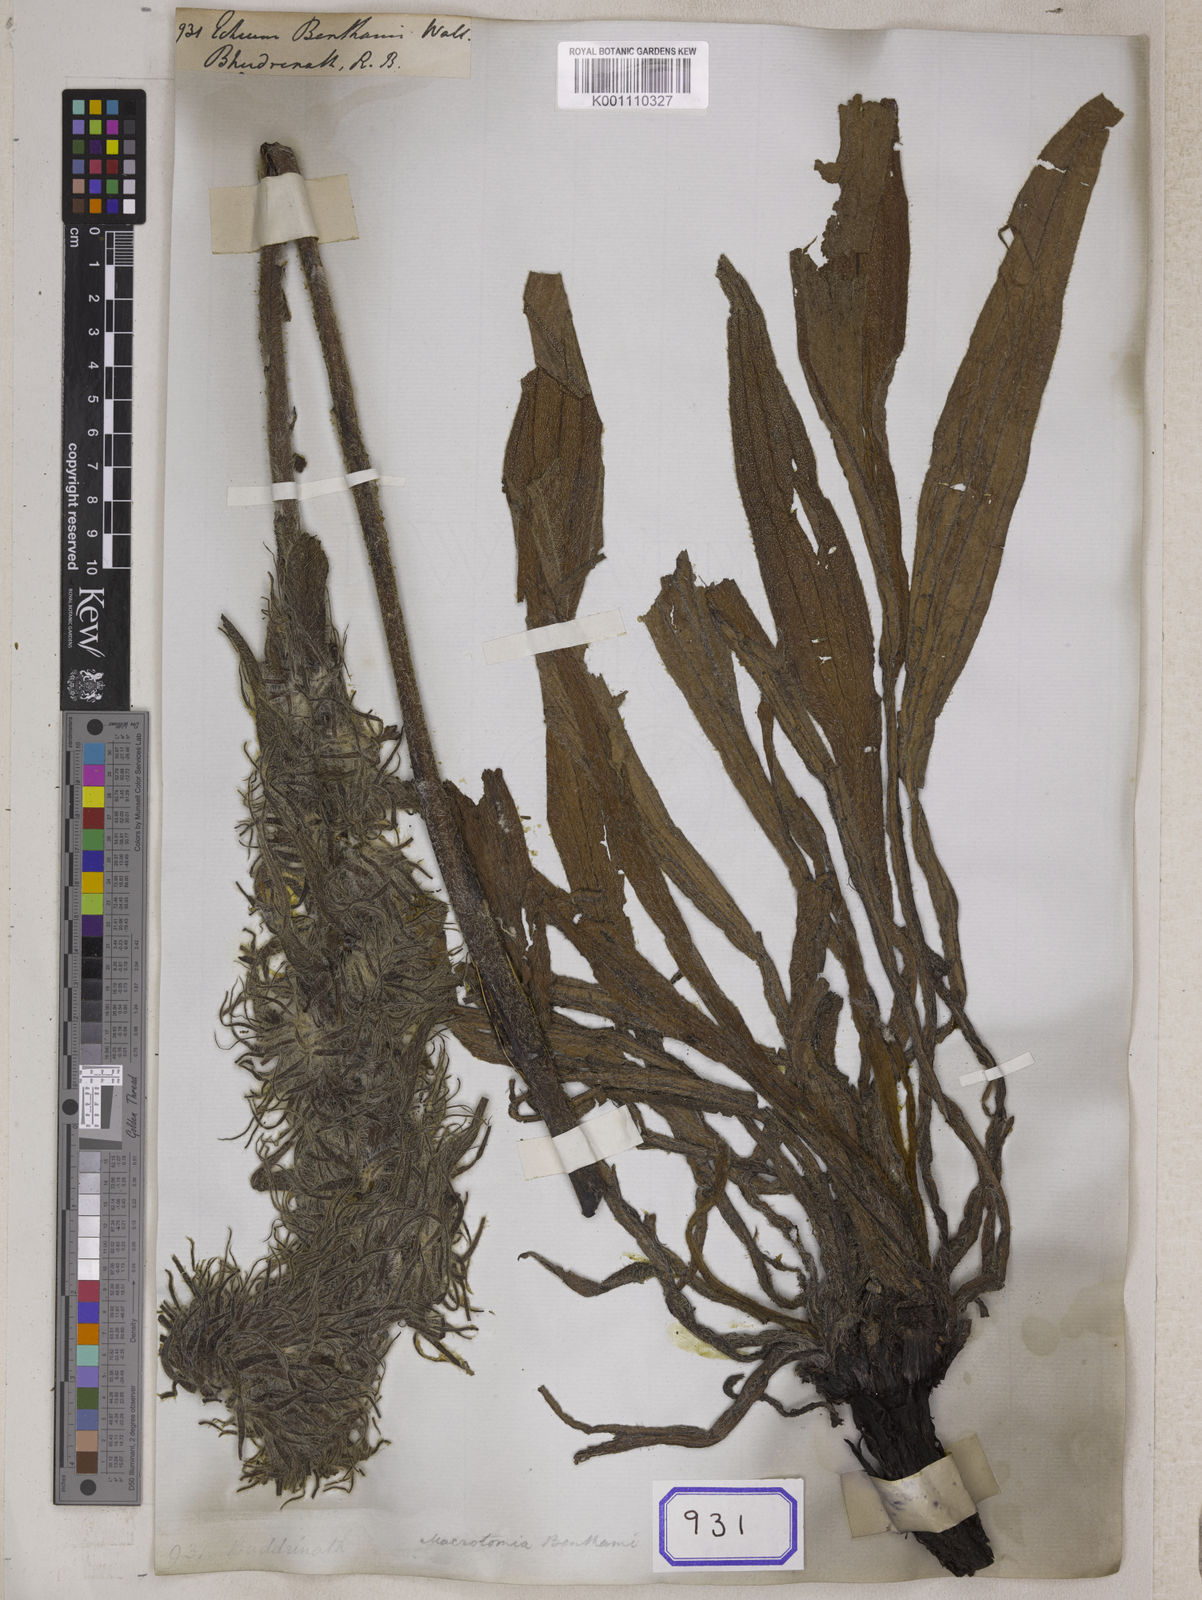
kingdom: Plantae
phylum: Tracheophyta
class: Magnoliopsida
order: Boraginales
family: Boraginaceae
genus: Echium
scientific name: Echium
